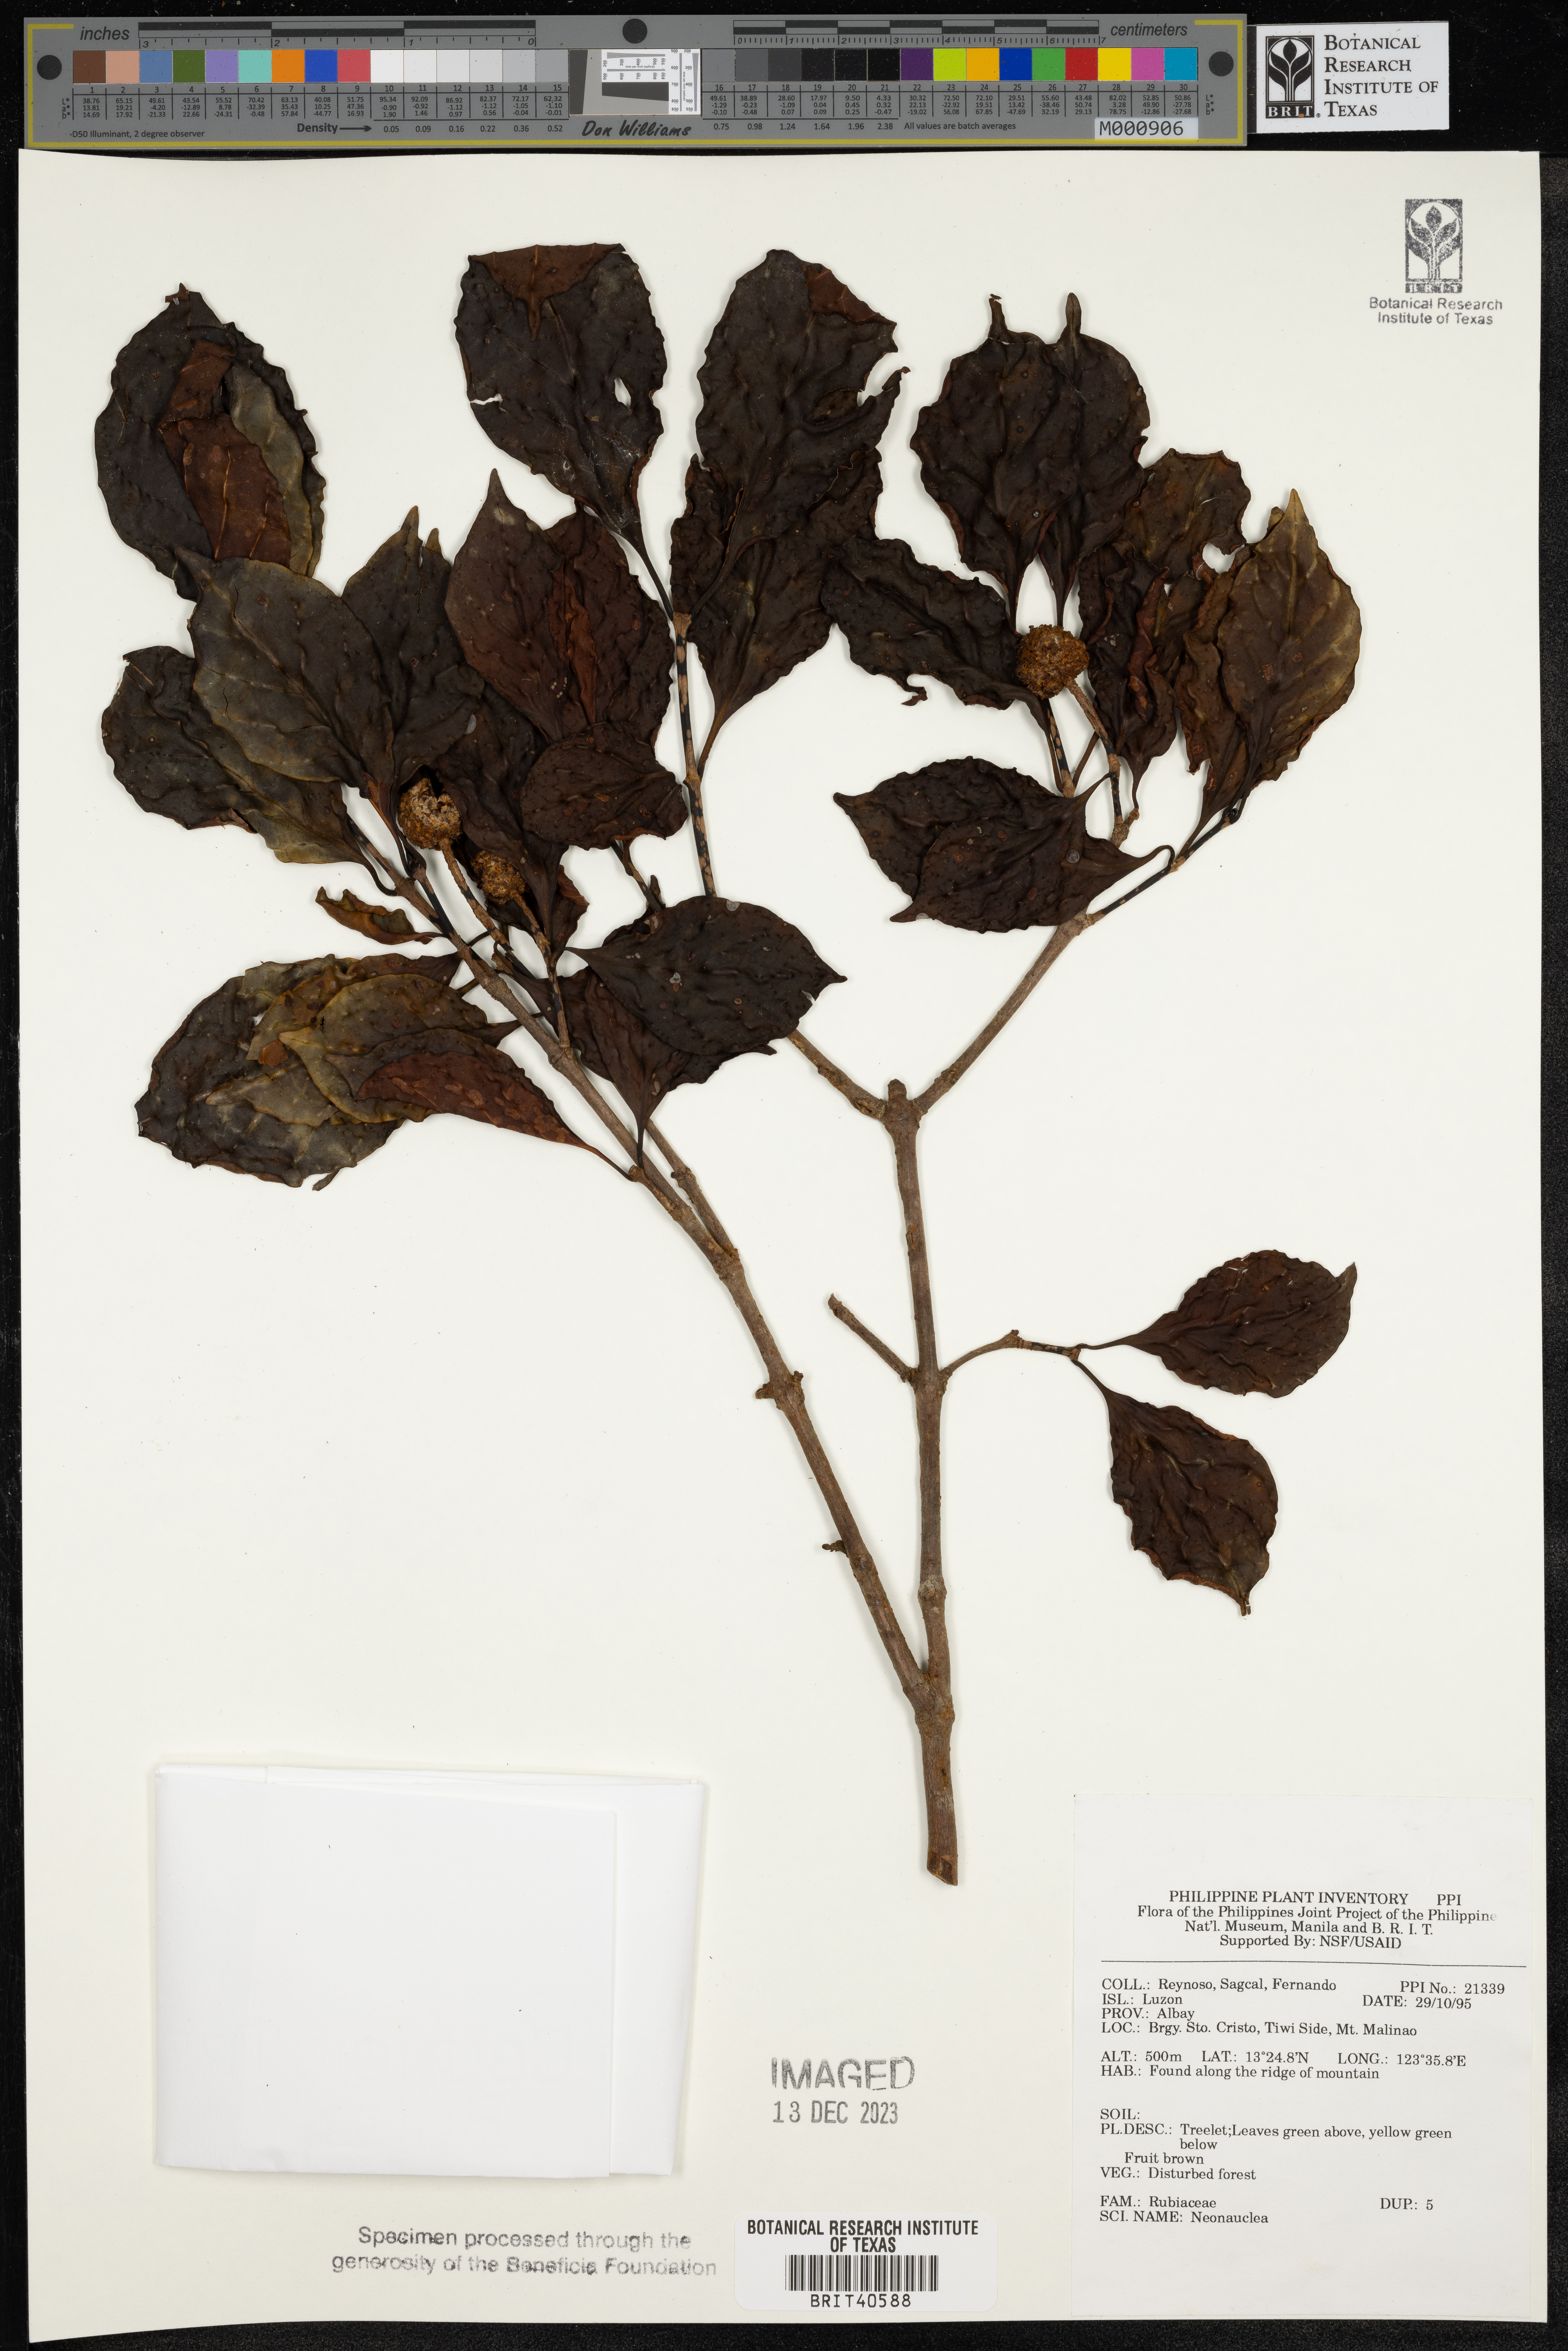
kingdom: Plantae
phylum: Tracheophyta
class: Magnoliopsida
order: Gentianales
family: Rubiaceae
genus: Neonauclea
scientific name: Neonauclea
